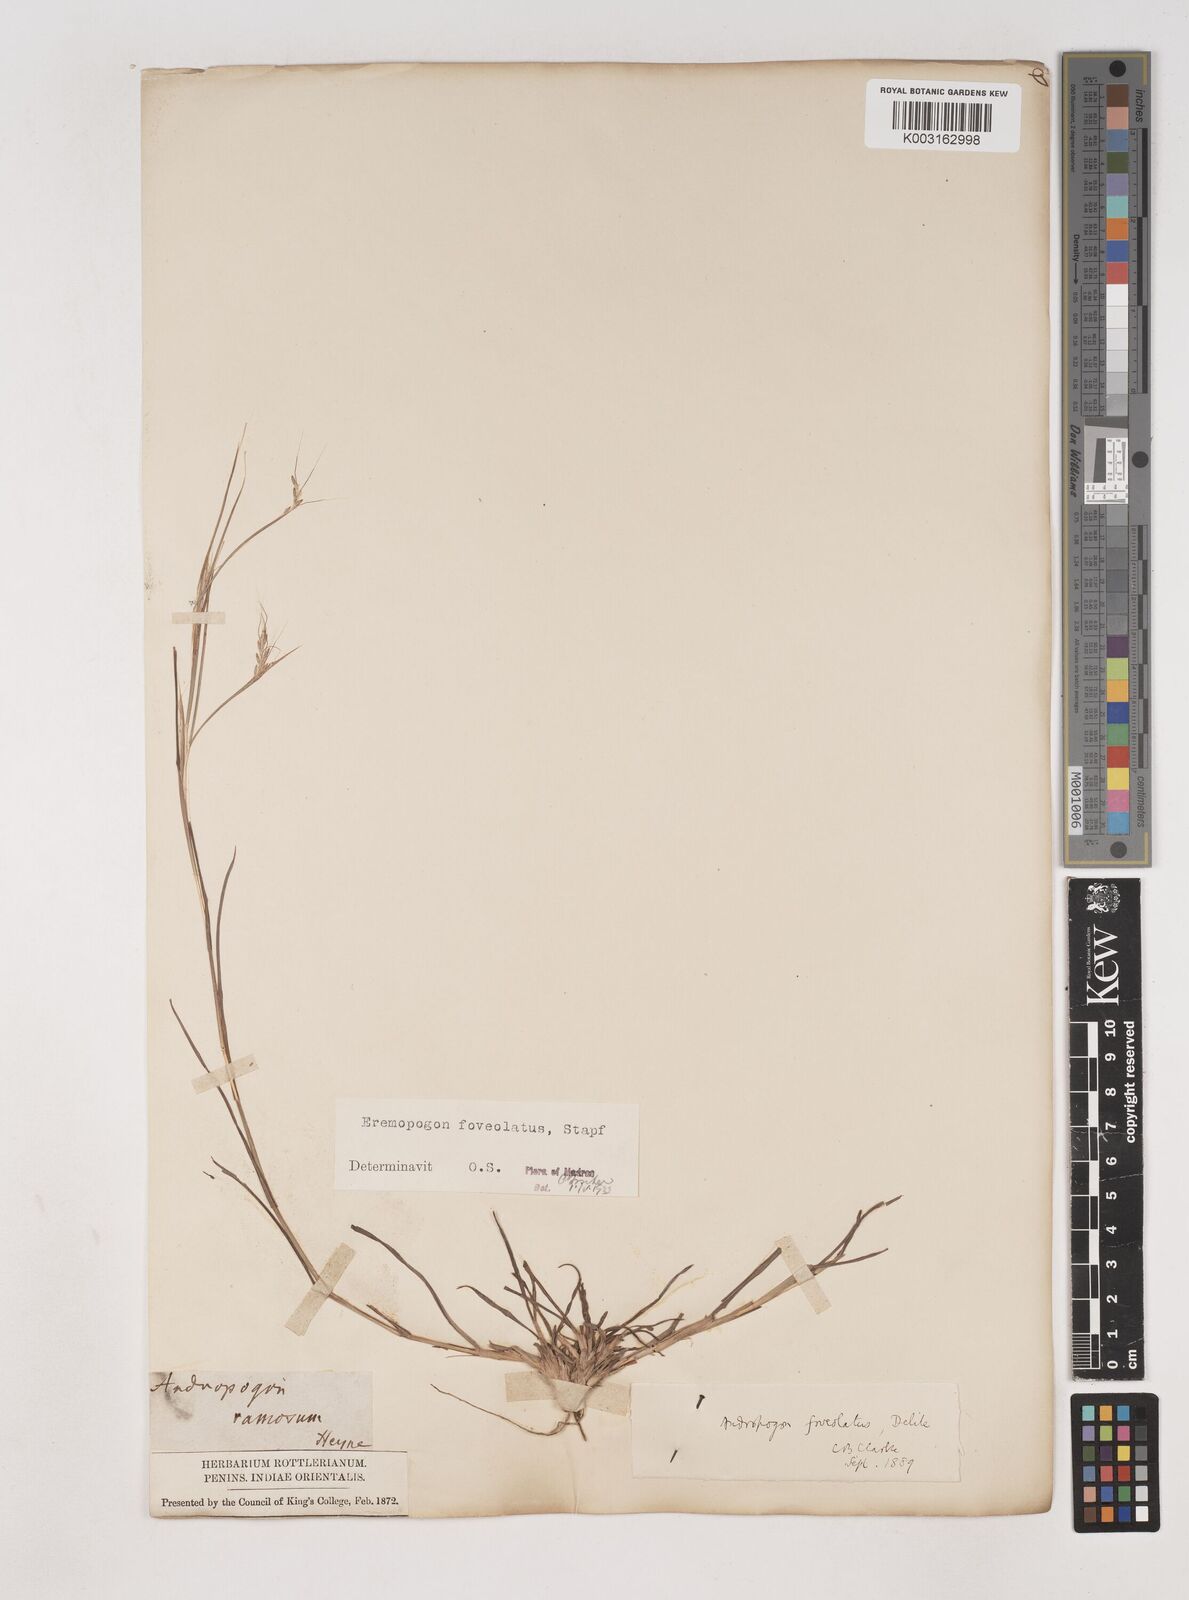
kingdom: Plantae
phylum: Tracheophyta
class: Liliopsida
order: Poales
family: Poaceae
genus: Dichanthium
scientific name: Dichanthium foveolatum
